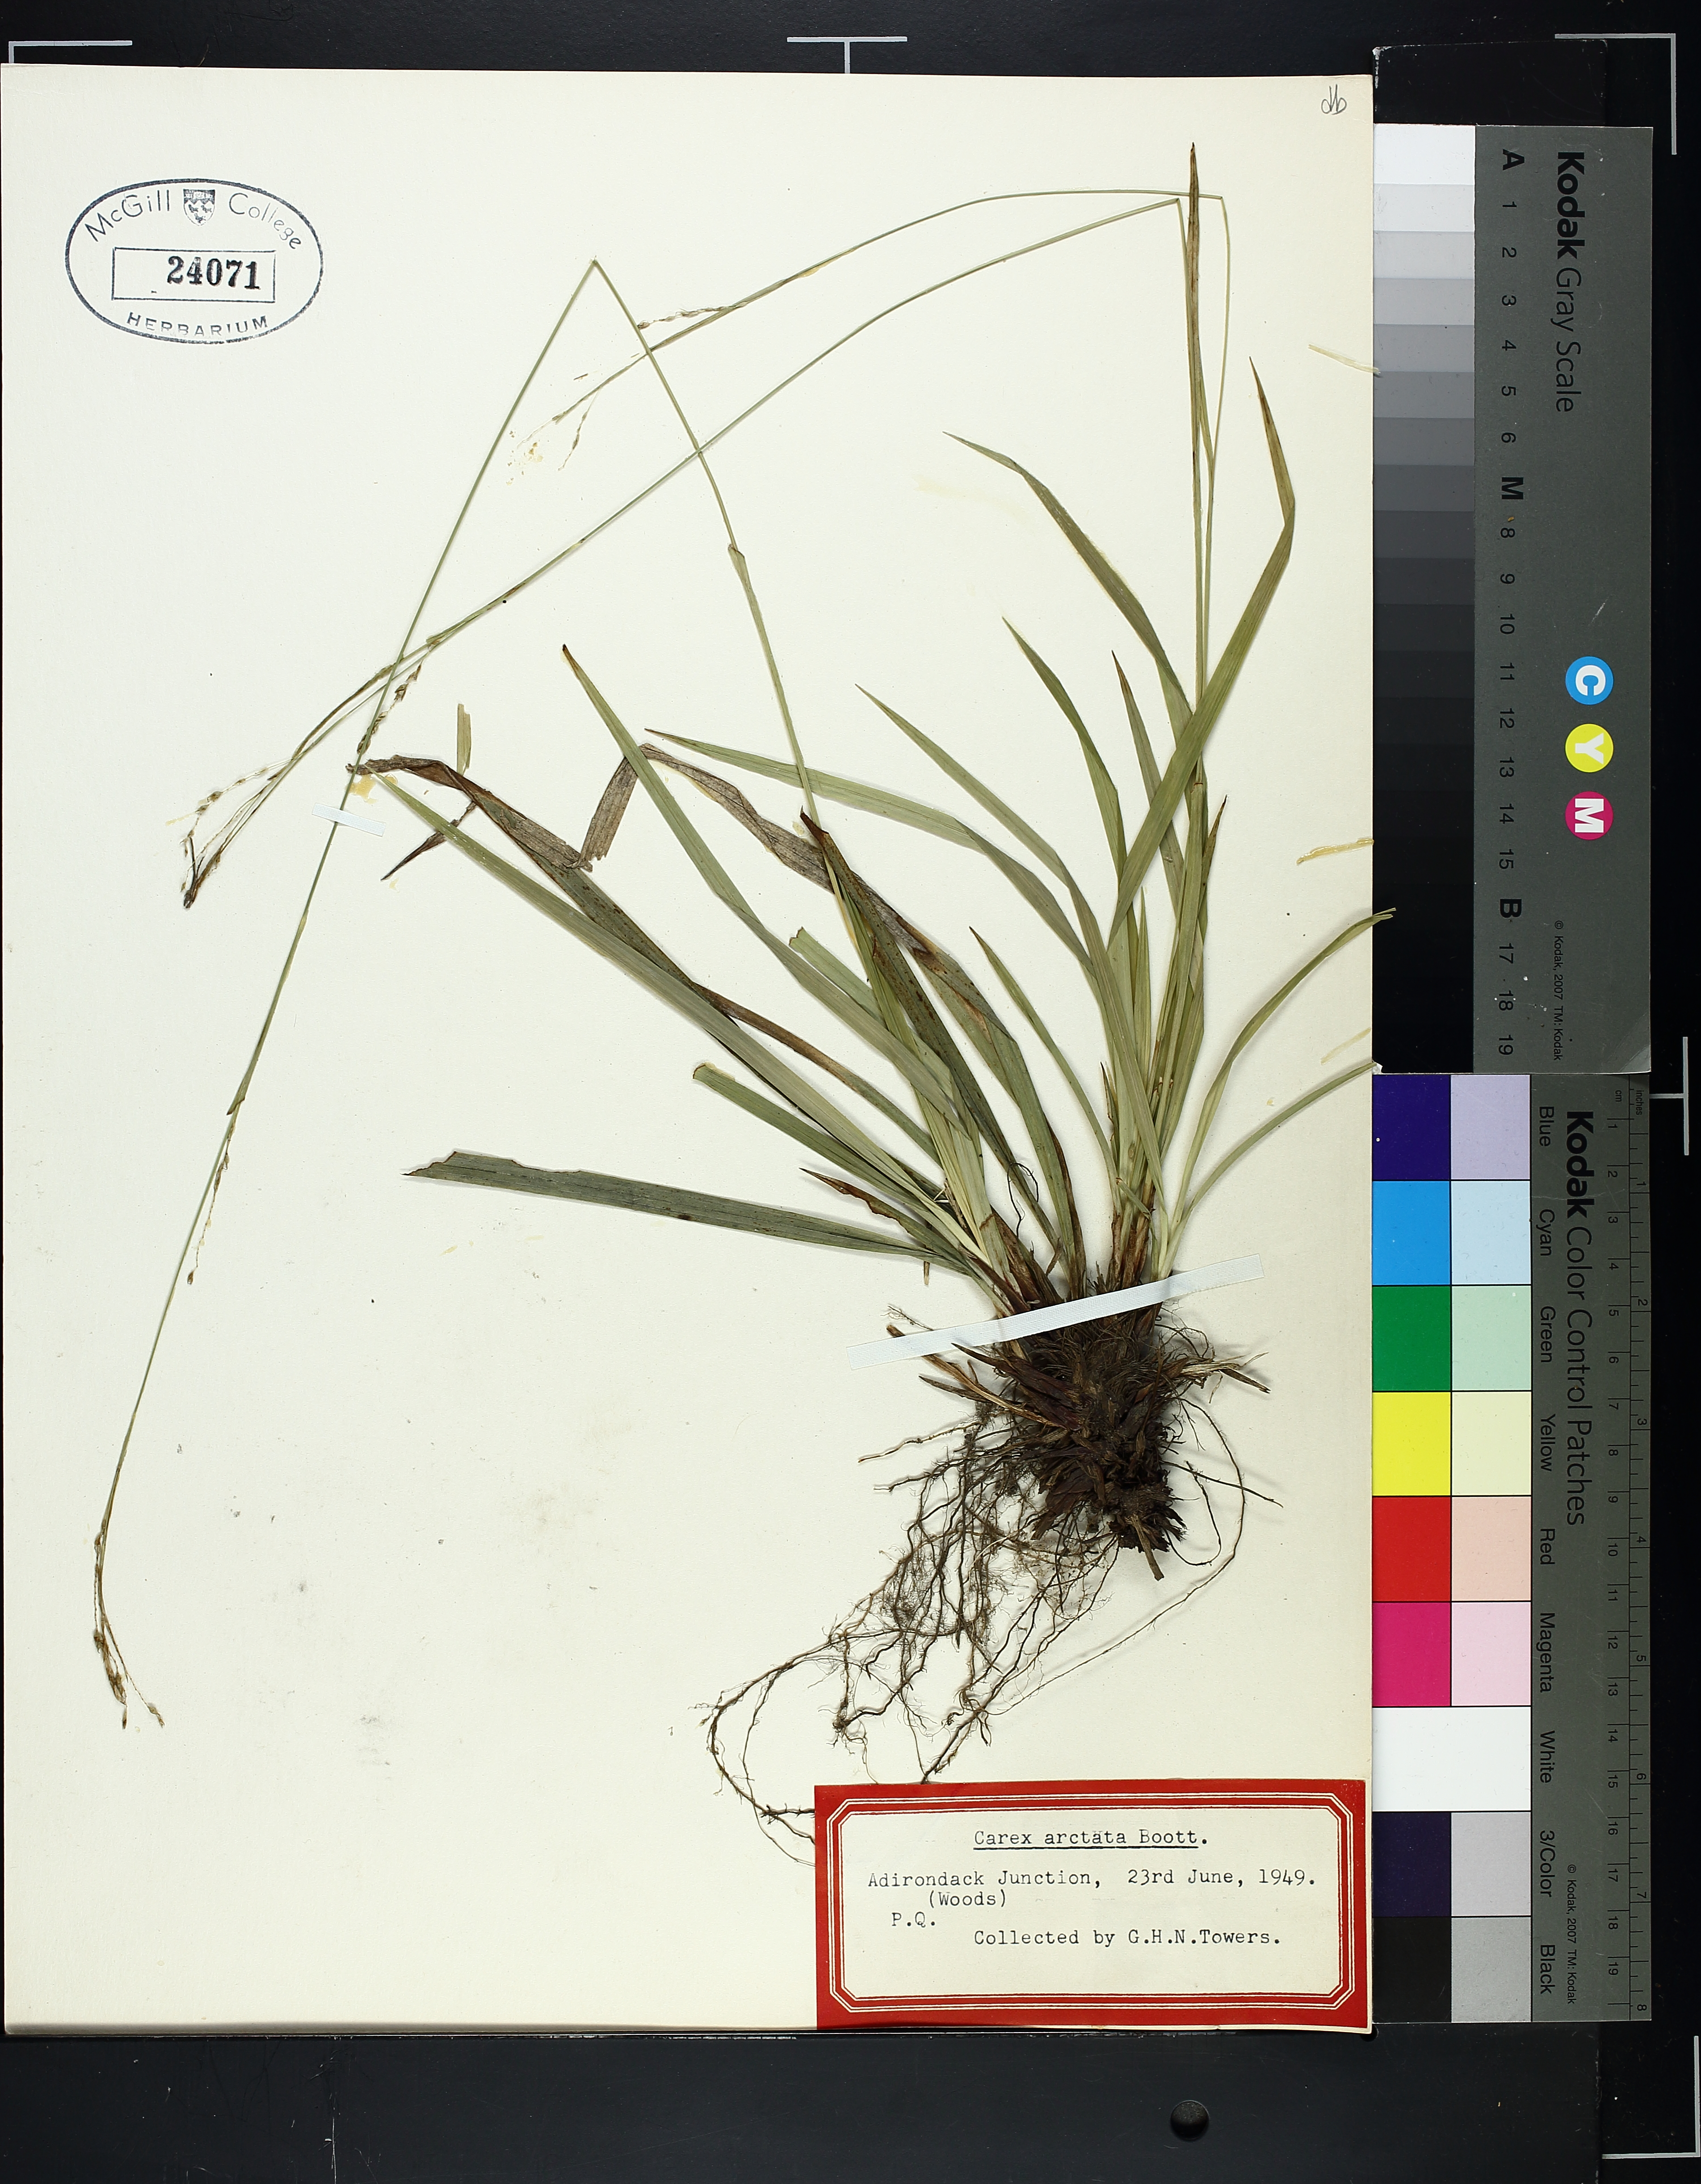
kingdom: Plantae
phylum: Tracheophyta
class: Liliopsida
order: Poales
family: Cyperaceae
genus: Carex
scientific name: Carex arctata
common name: Black sedge
